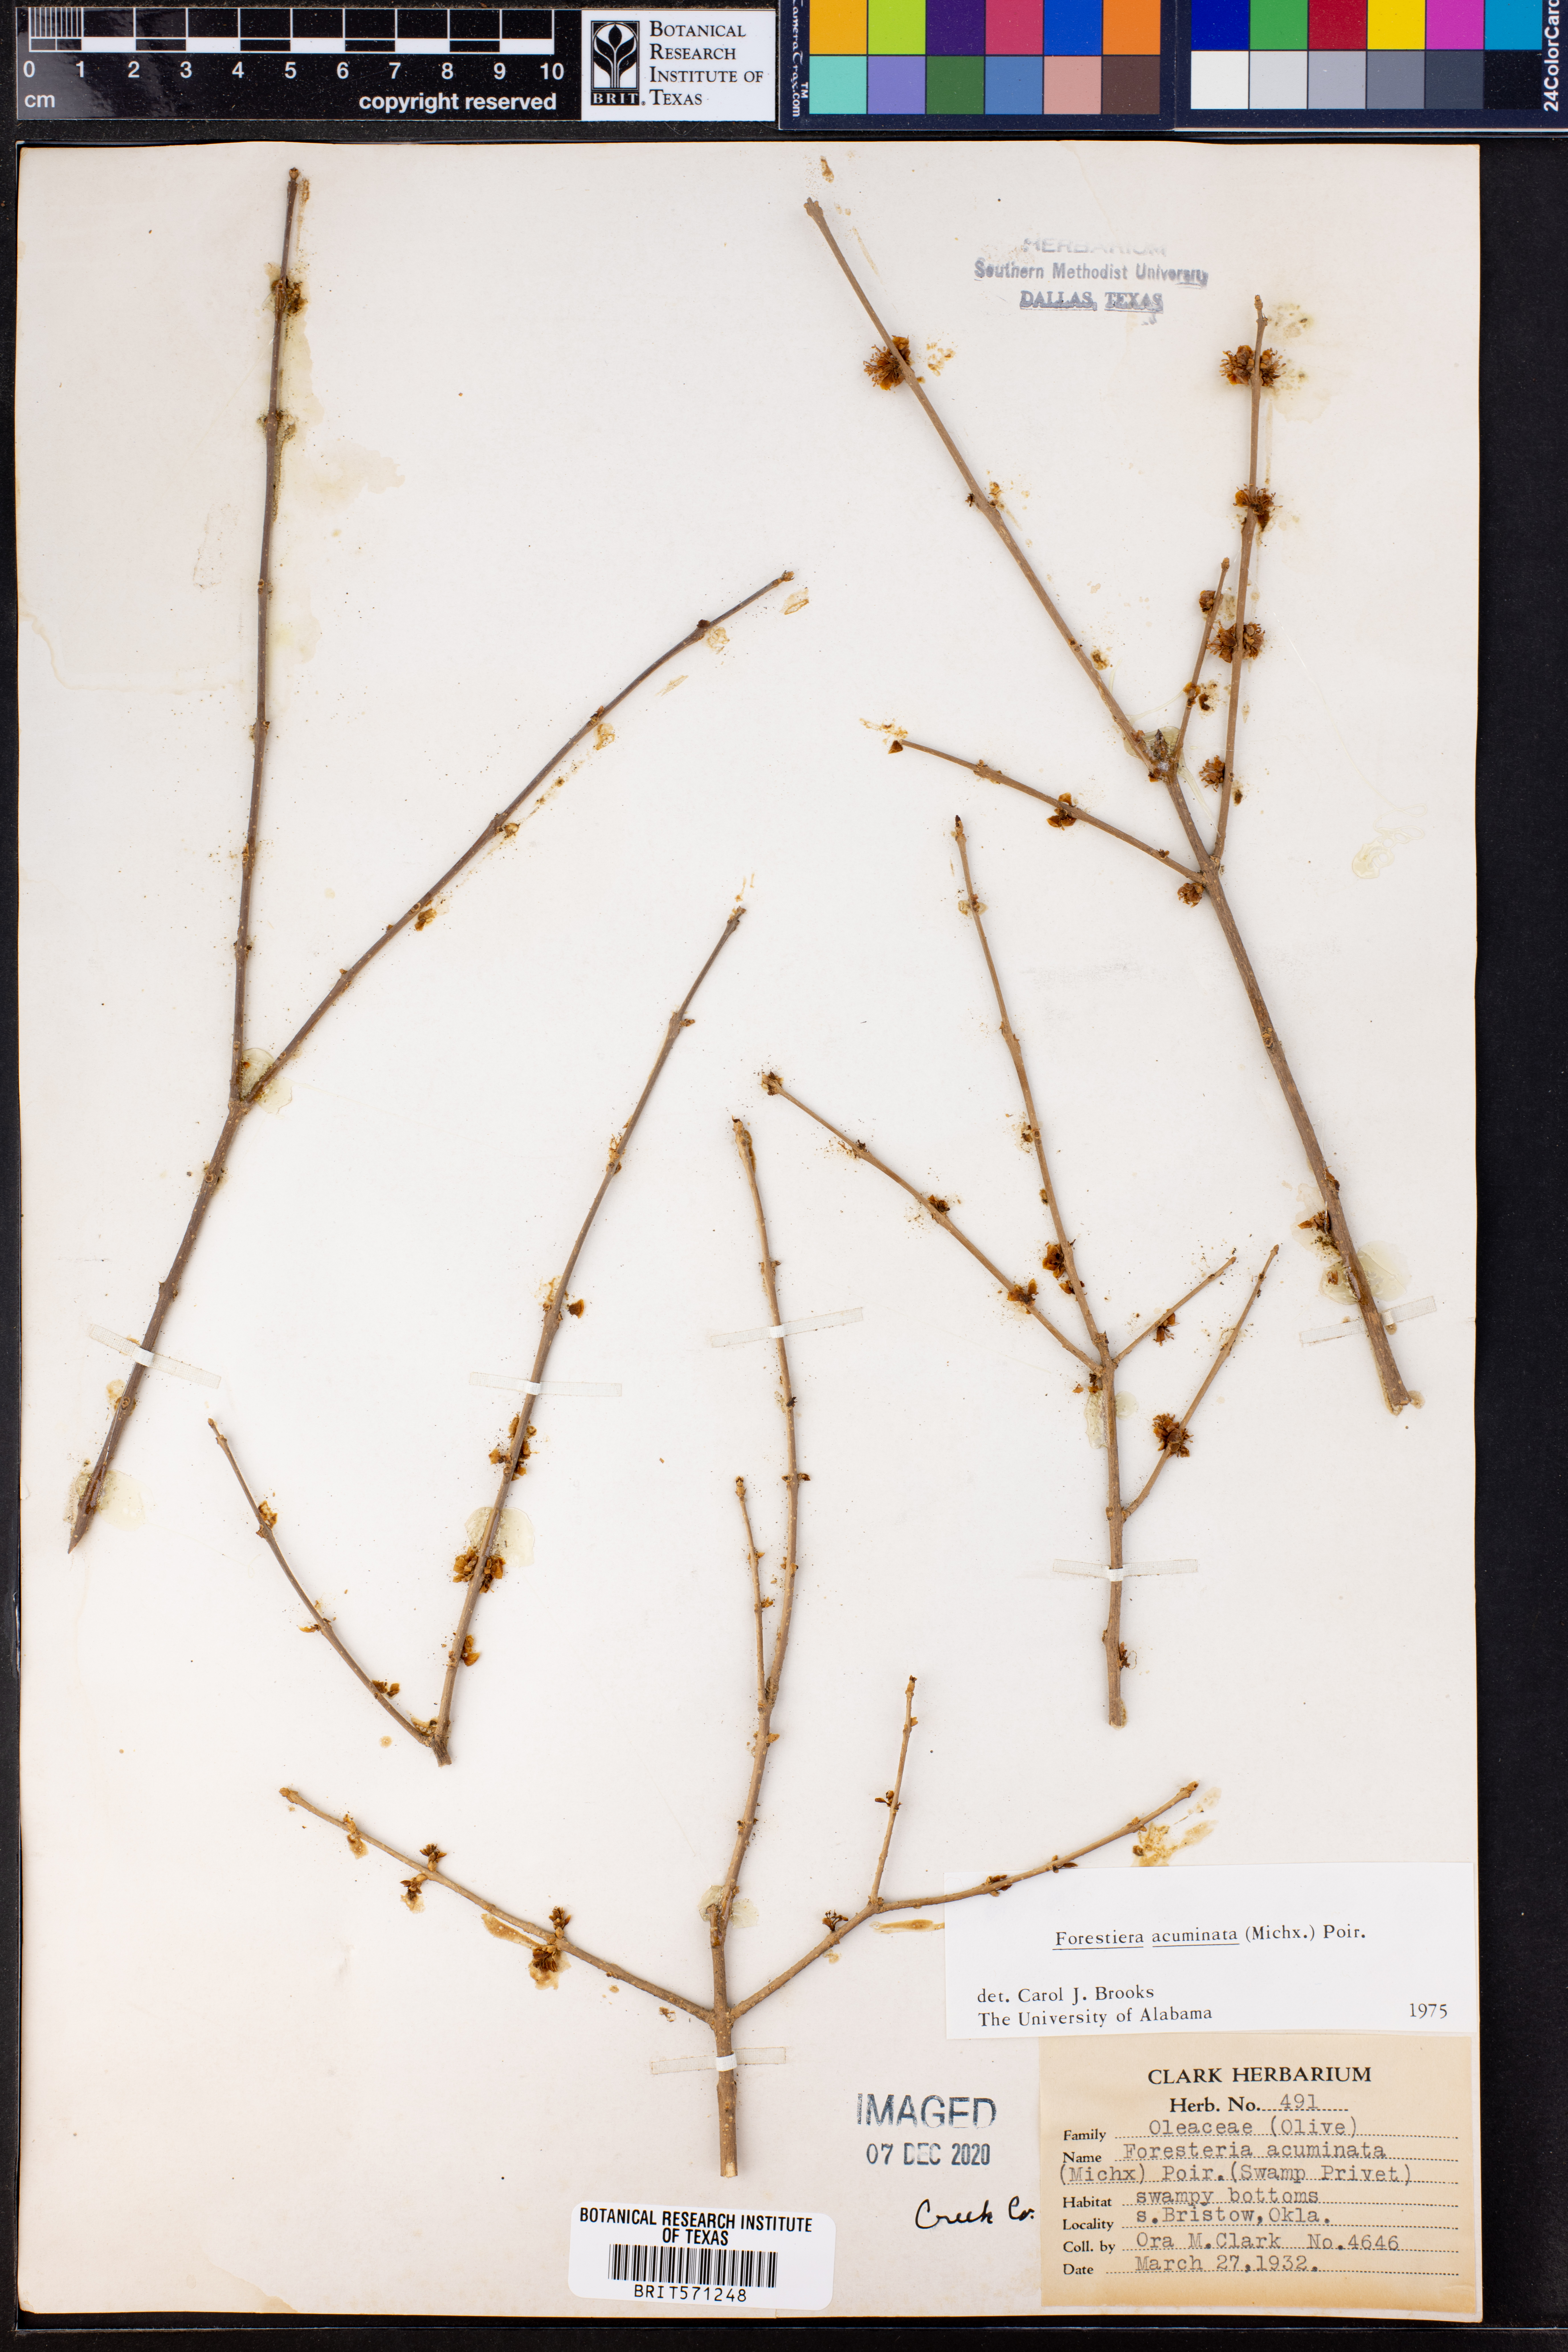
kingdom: Plantae
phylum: Tracheophyta
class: Magnoliopsida
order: Lamiales
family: Oleaceae
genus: Forestiera
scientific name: Forestiera acuminata
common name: Swamp-privet
